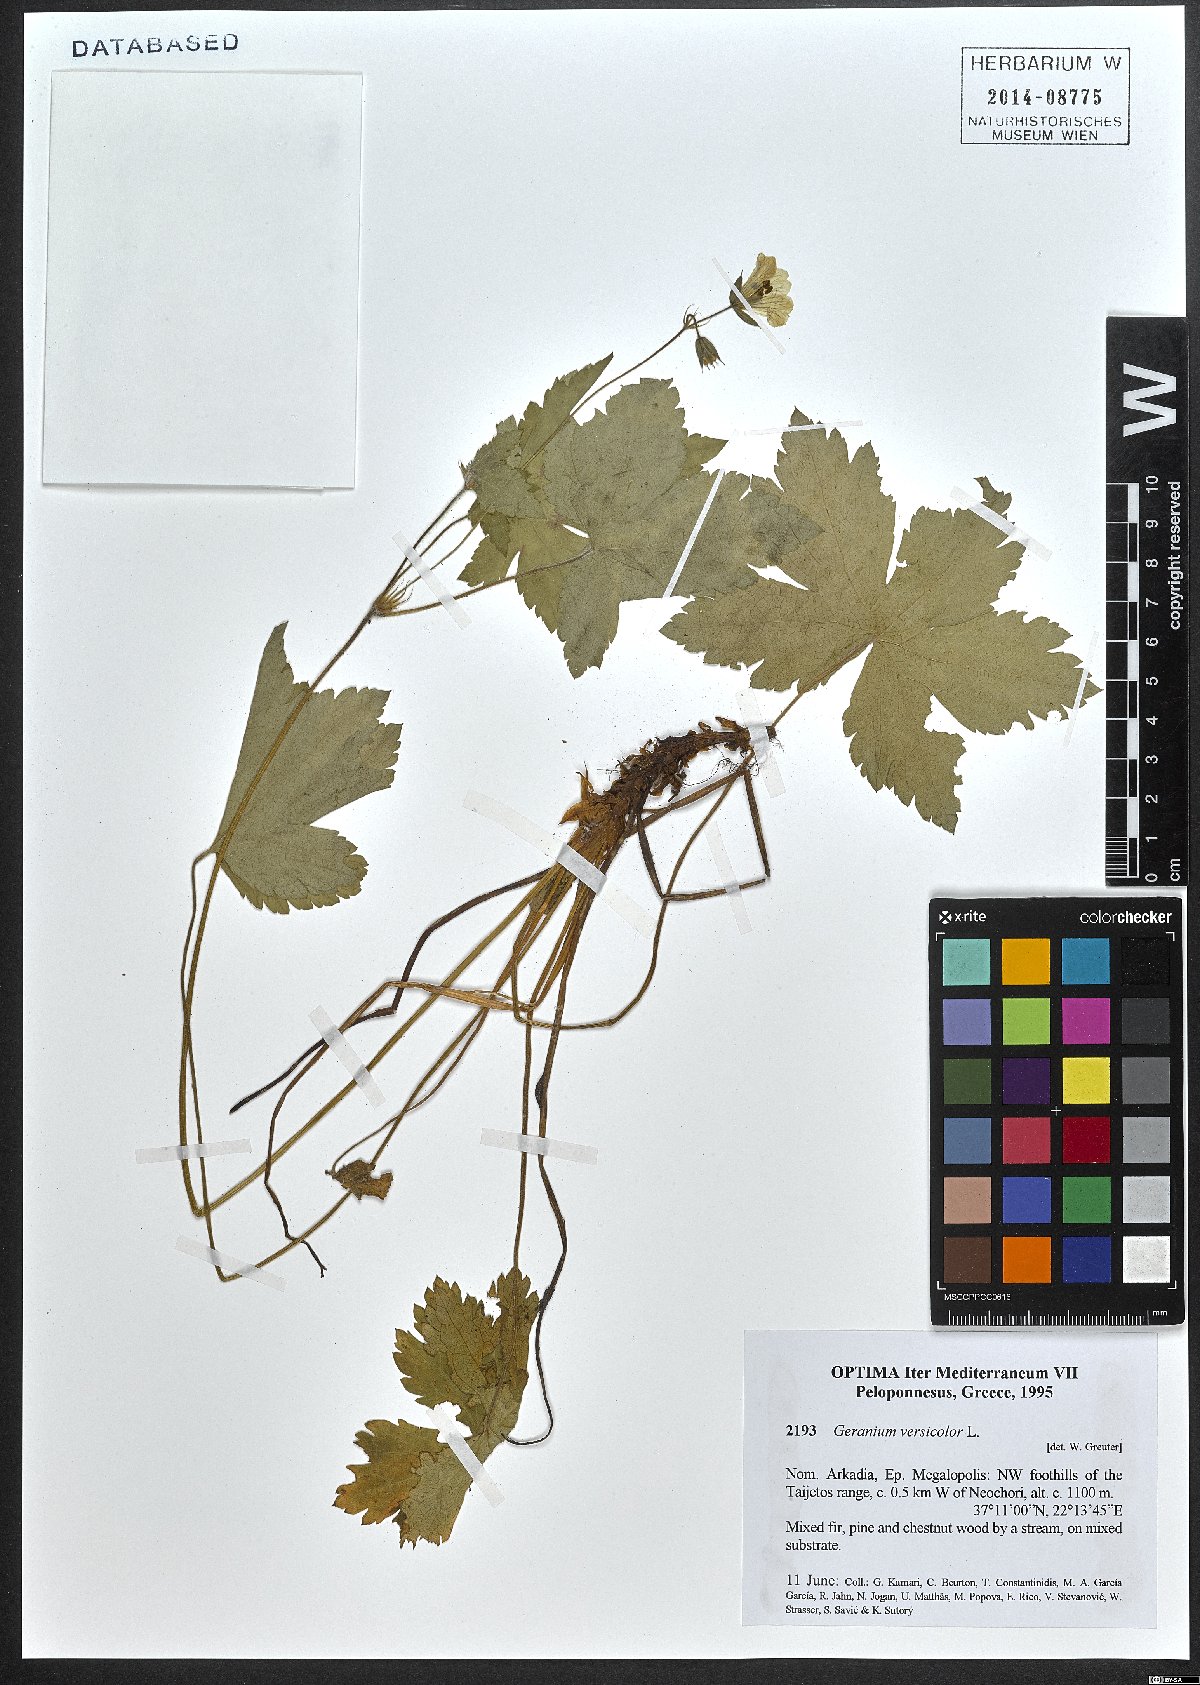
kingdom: Plantae
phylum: Tracheophyta
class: Magnoliopsida
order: Geraniales
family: Geraniaceae
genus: Geranium
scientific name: Geranium versicolor
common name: Pencilled crane's-bill
